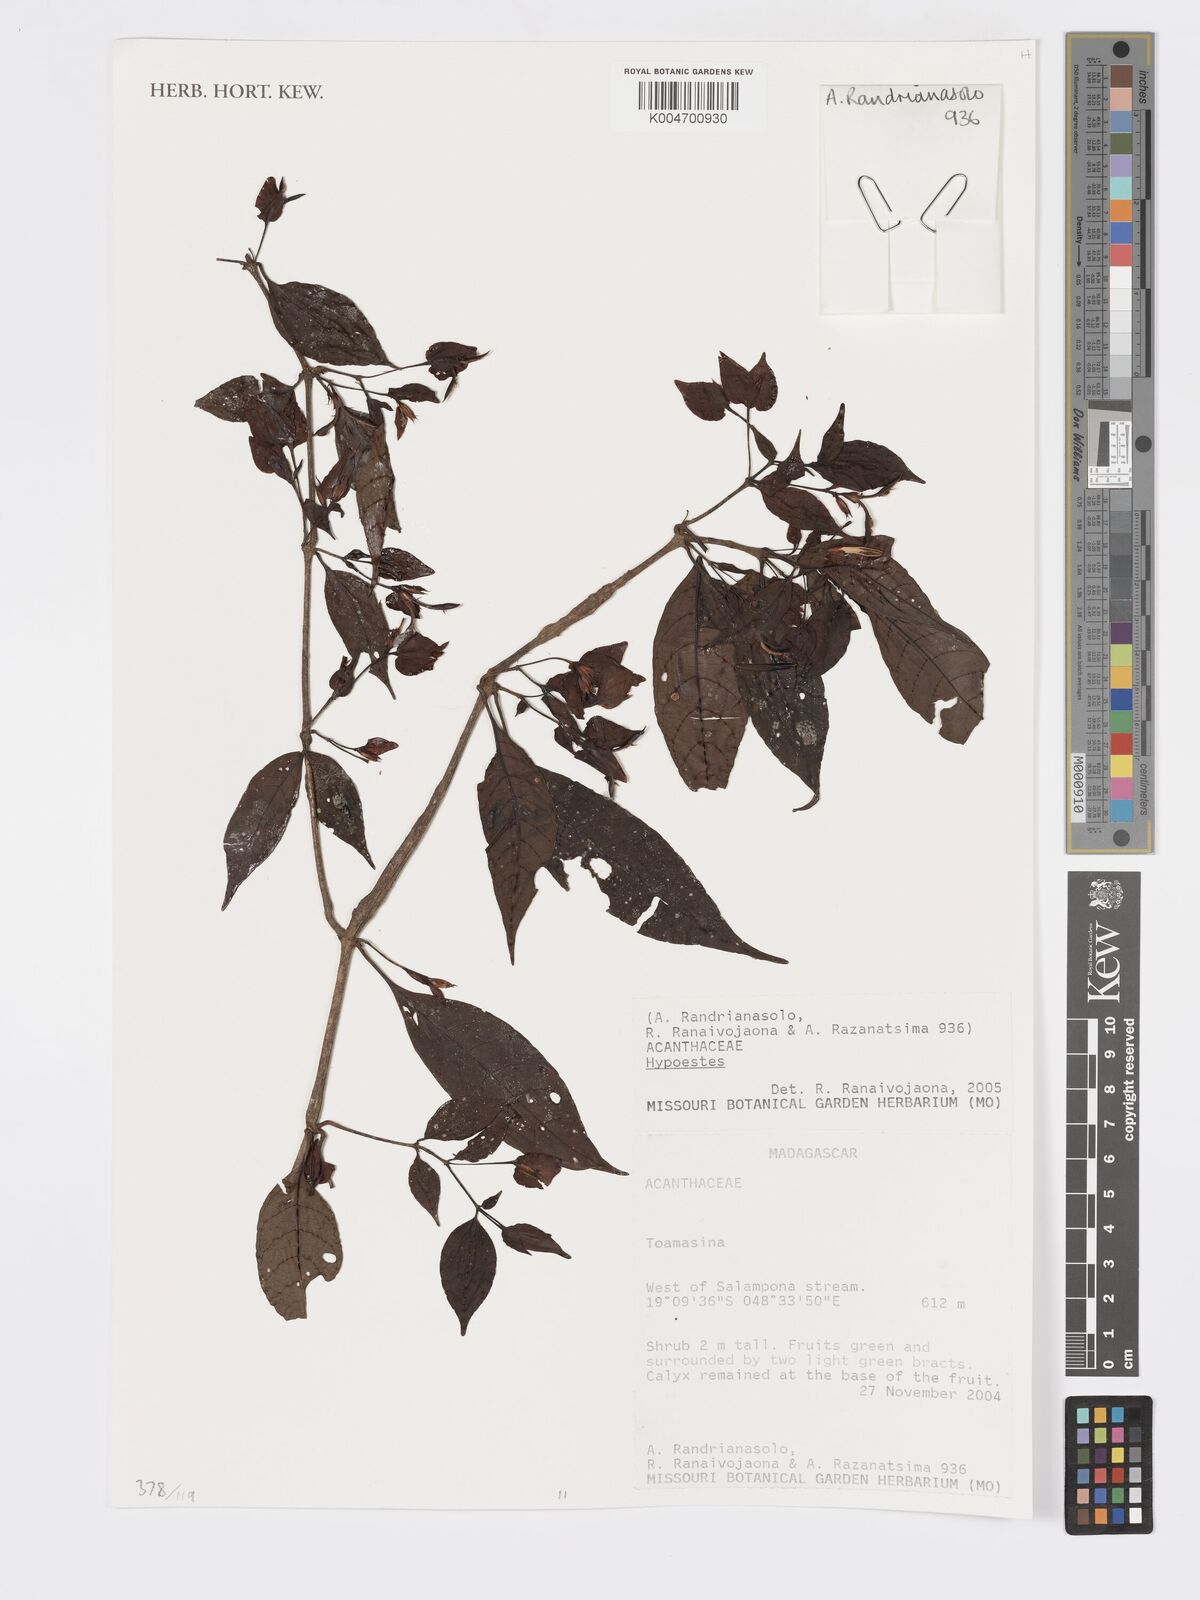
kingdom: Plantae
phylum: Tracheophyta
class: Magnoliopsida
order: Lamiales
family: Acanthaceae
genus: Hypoestes
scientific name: Hypoestes
